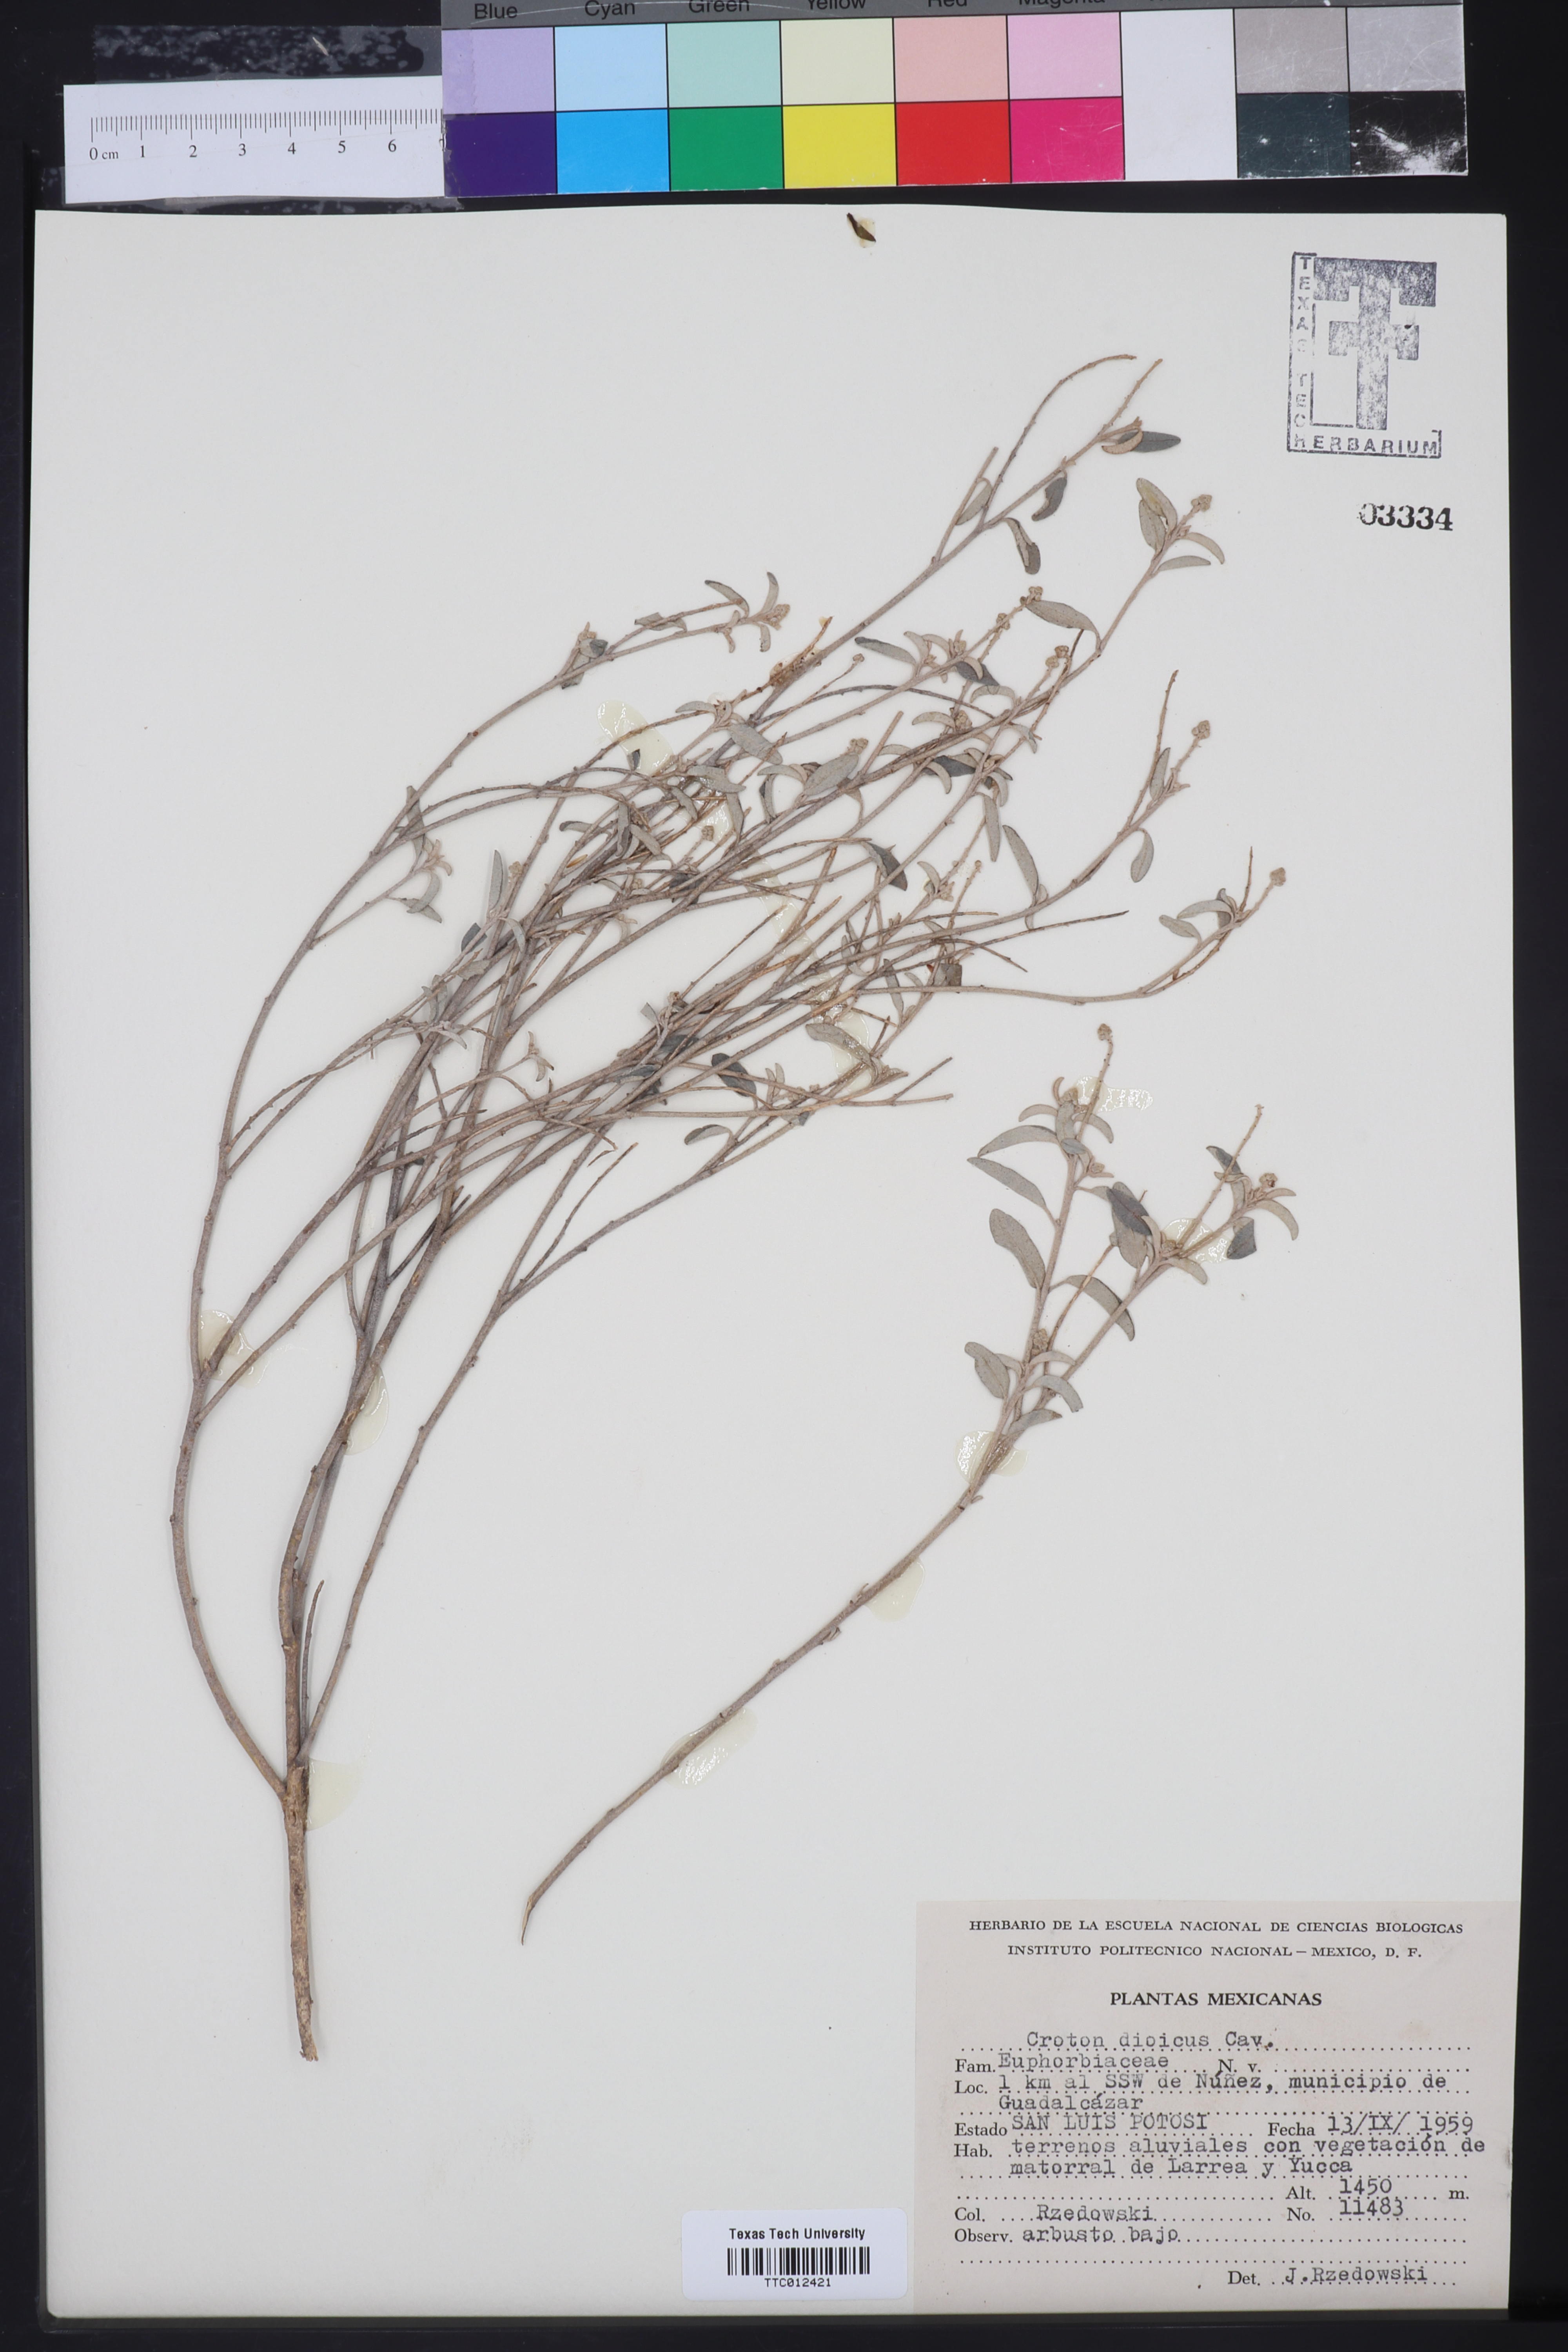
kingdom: Plantae
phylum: Tracheophyta
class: Magnoliopsida
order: Malpighiales
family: Euphorbiaceae
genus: Croton
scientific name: Croton dioicus
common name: Grassland croton
